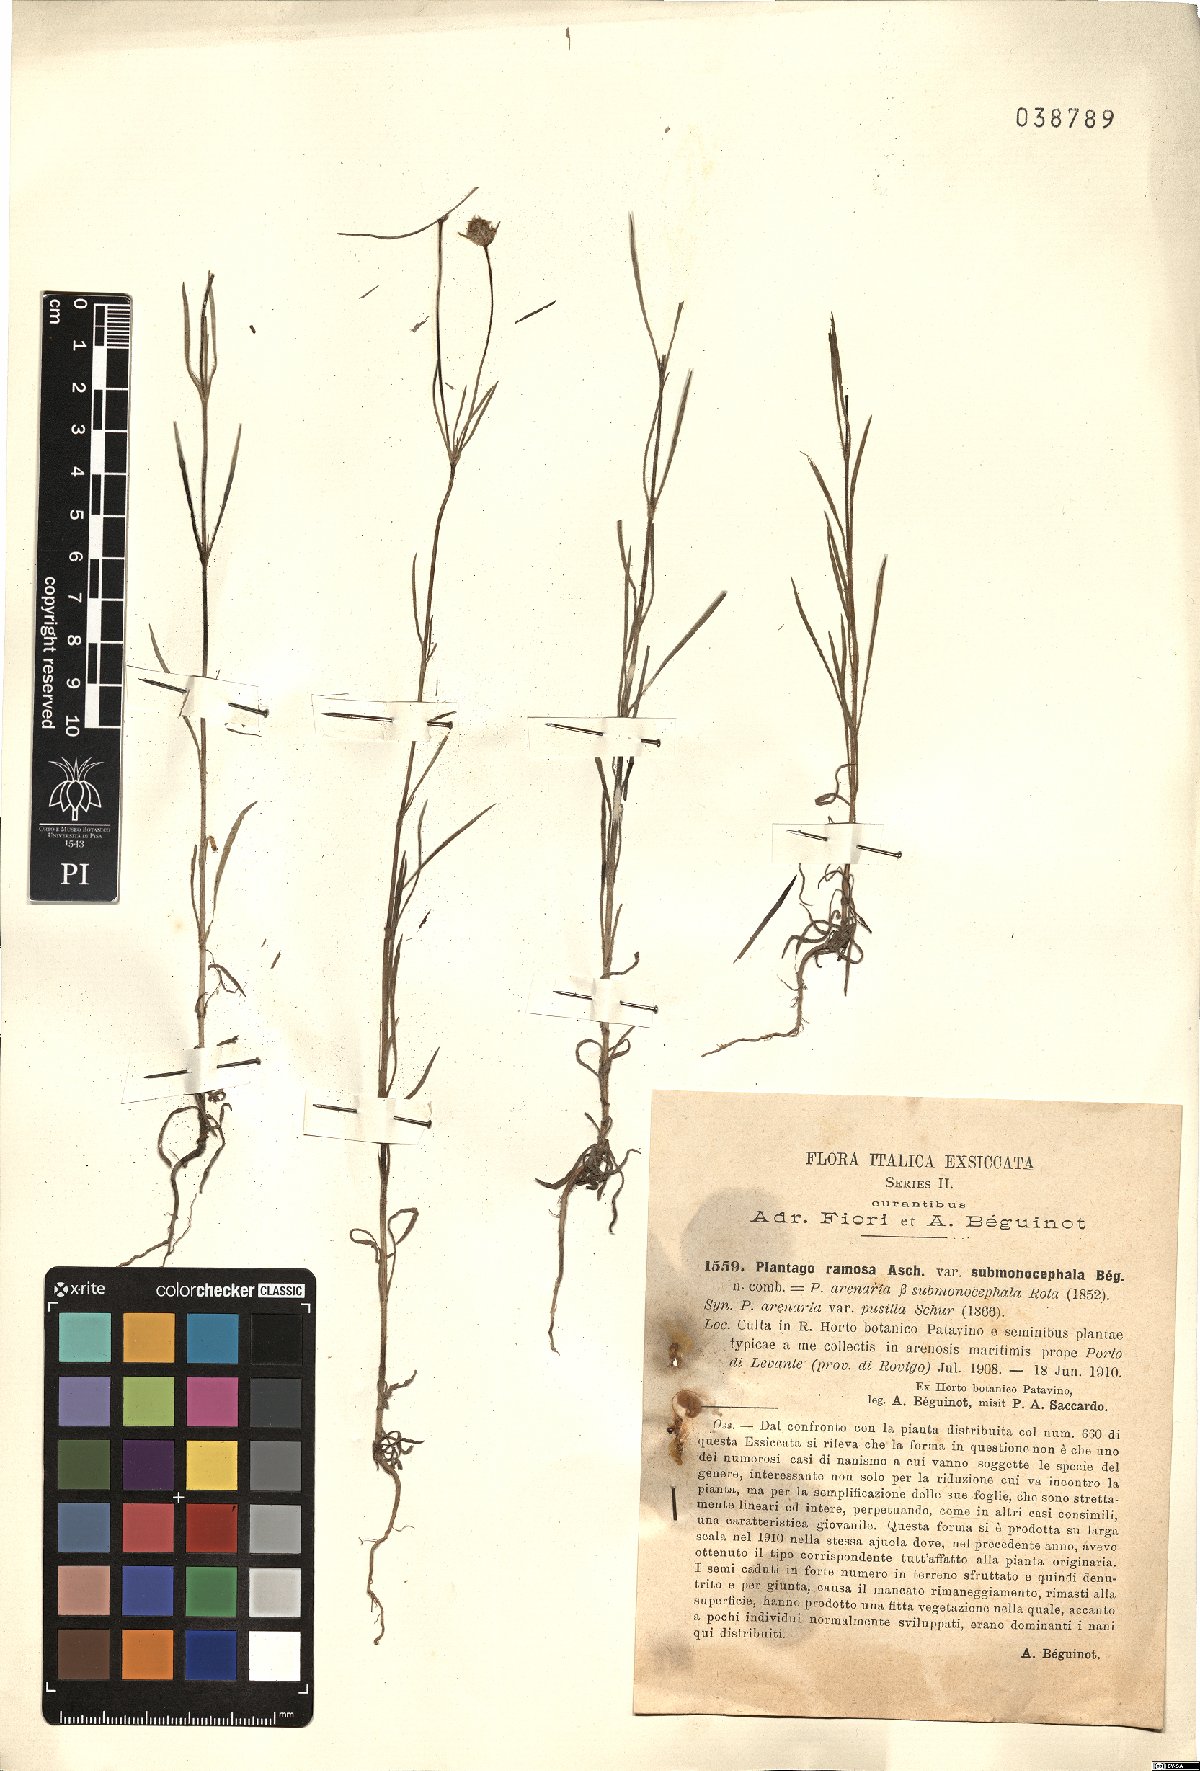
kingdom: Plantae
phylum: Tracheophyta
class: Magnoliopsida
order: Lamiales
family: Plantaginaceae
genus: Plantago
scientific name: Plantago arenaria
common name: Branched plantain
